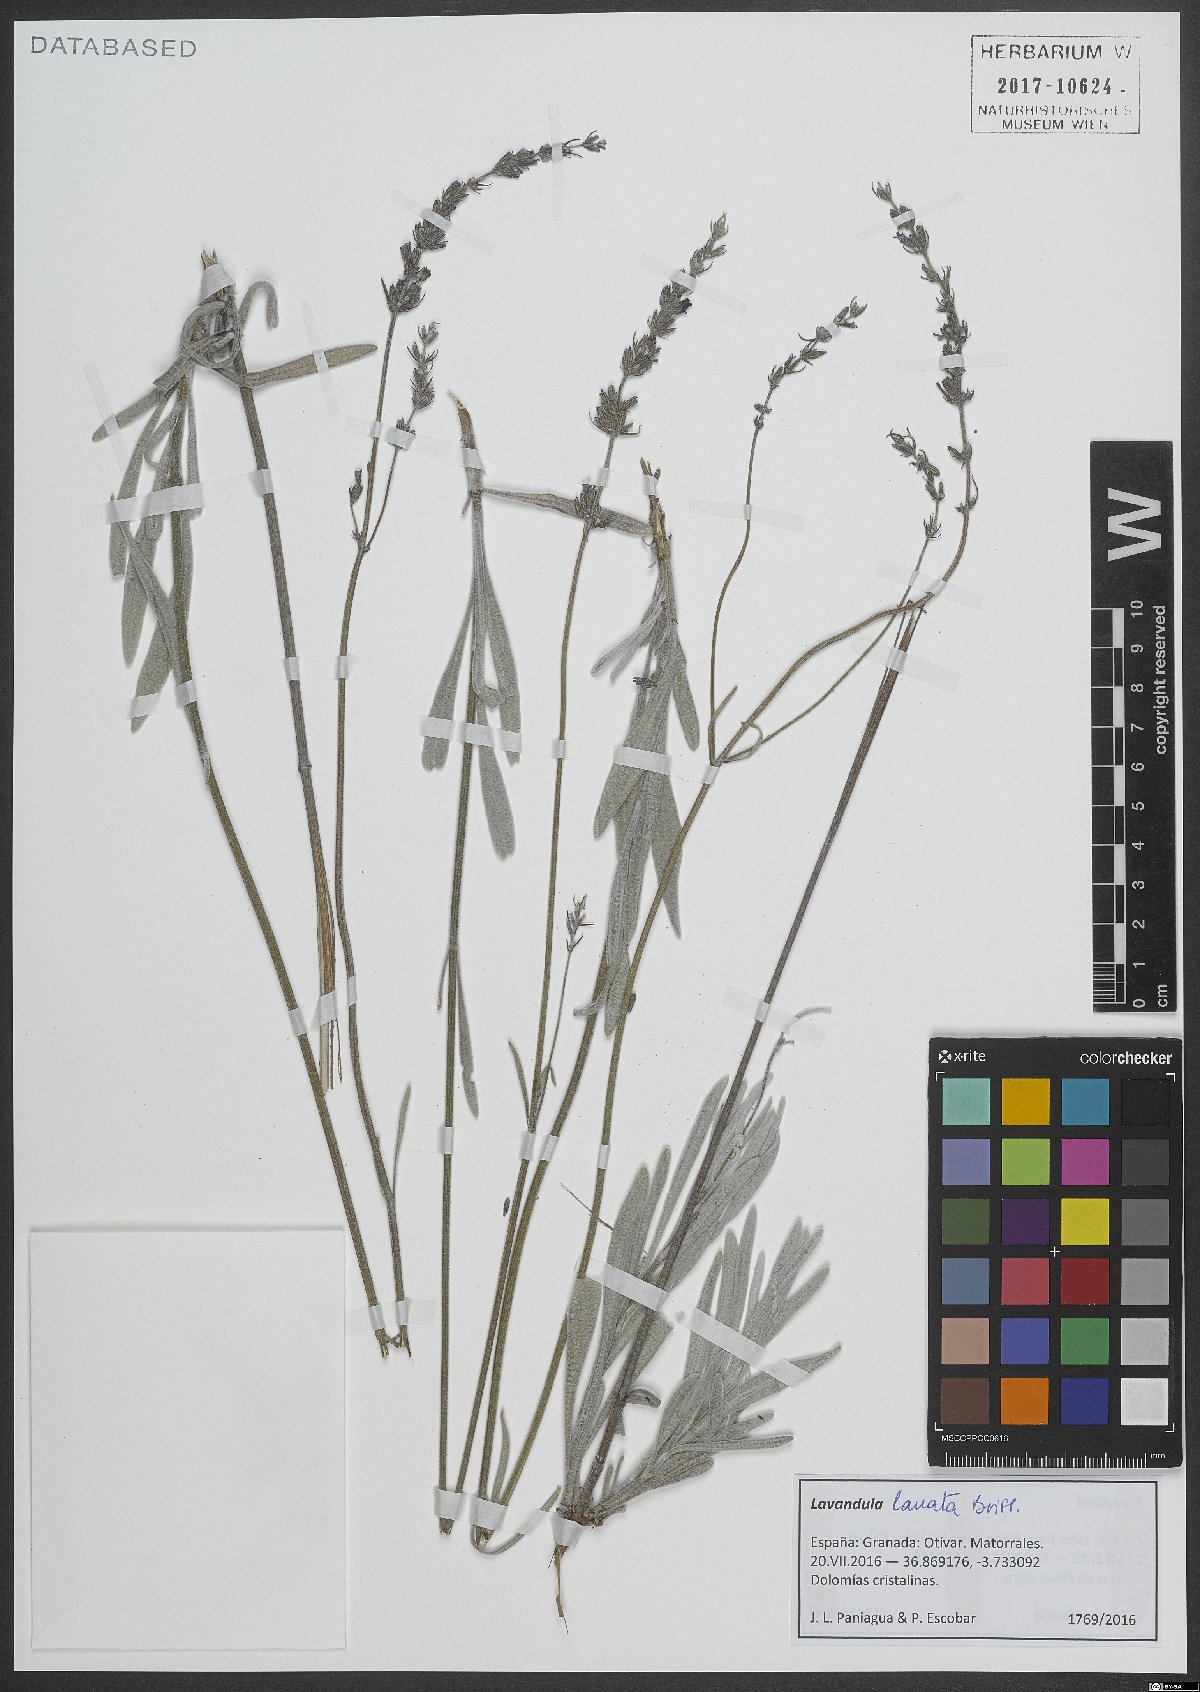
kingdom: Plantae
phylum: Tracheophyta
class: Magnoliopsida
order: Lamiales
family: Lamiaceae
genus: Lavandula
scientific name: Lavandula lanata
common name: Woolly lavender
